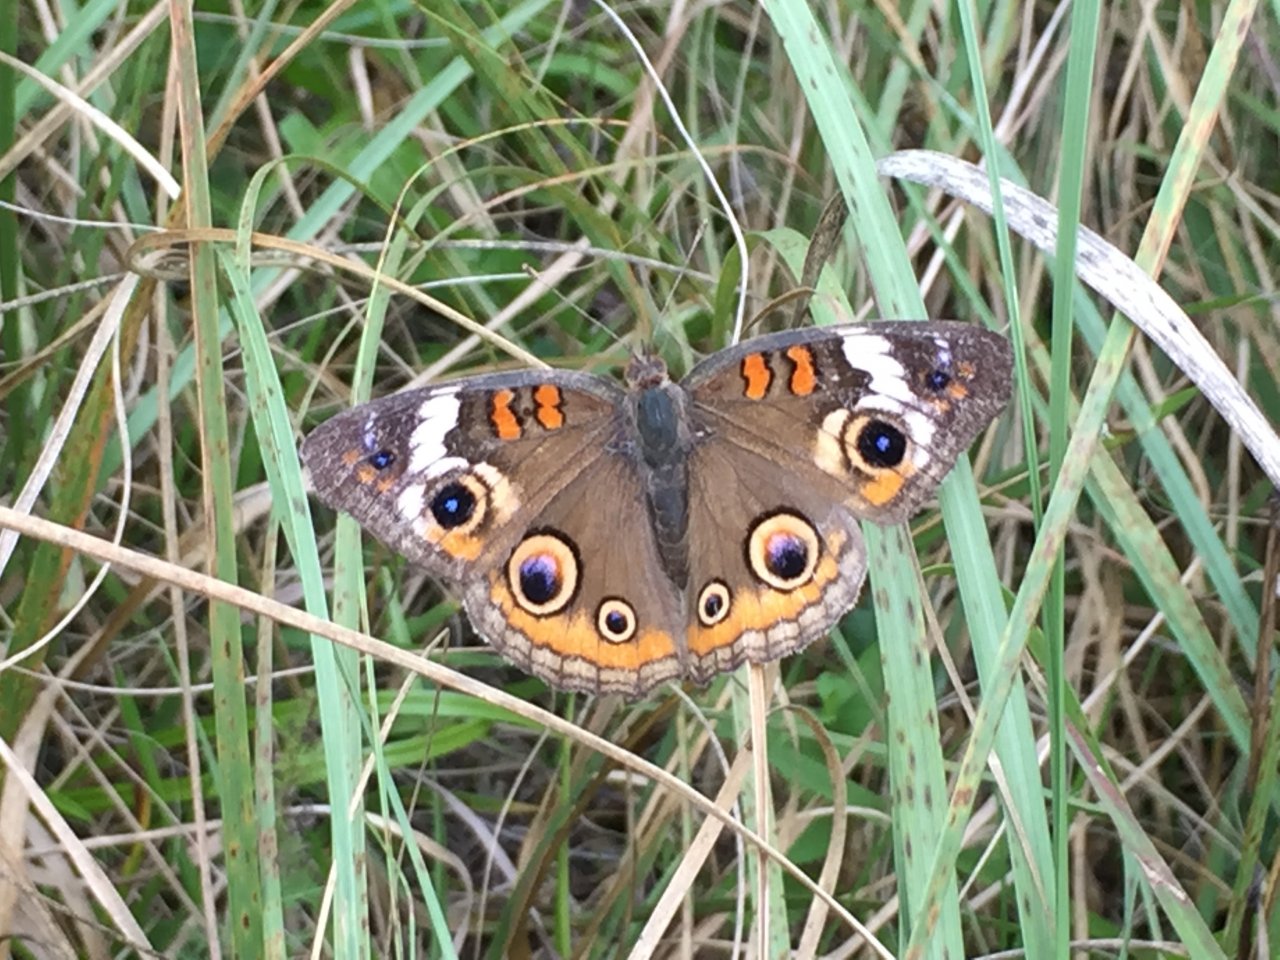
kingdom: Animalia
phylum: Arthropoda
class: Insecta
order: Lepidoptera
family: Nymphalidae
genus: Junonia
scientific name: Junonia coenia
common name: Common Buckeye
